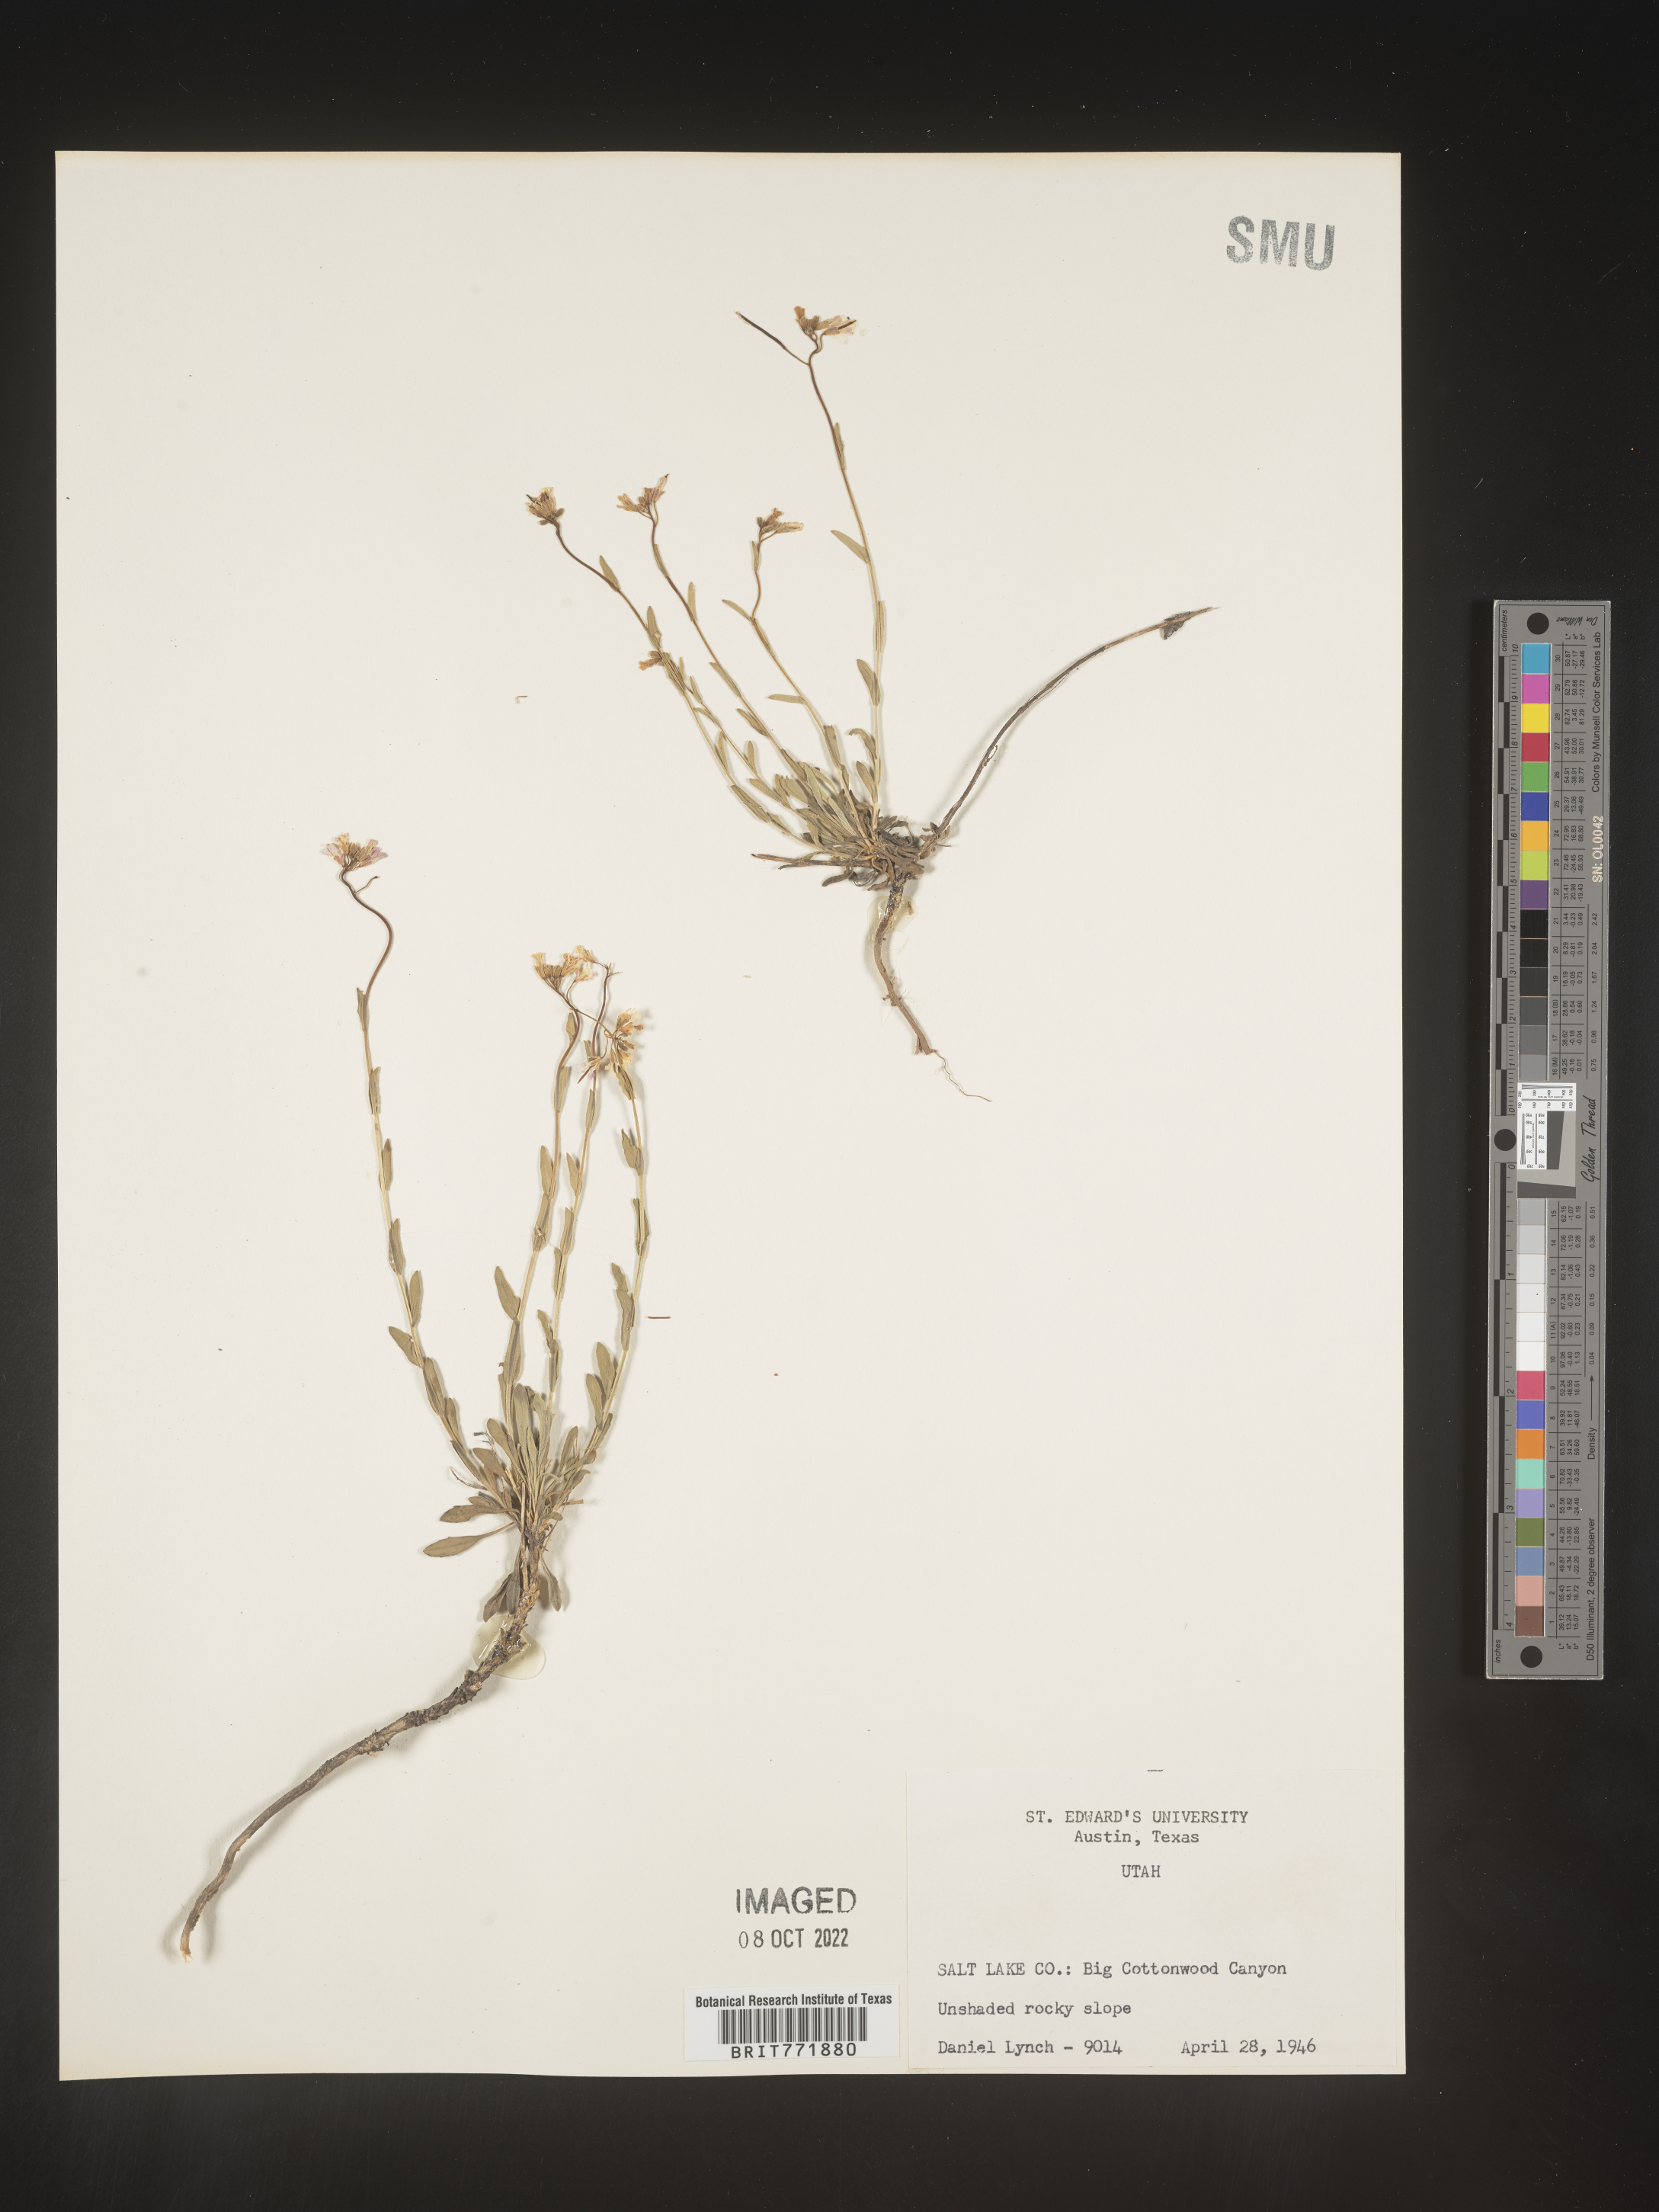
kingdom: Plantae
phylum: Tracheophyta
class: Magnoliopsida
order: Brassicales
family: Brassicaceae
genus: Arabis
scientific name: Arabis
